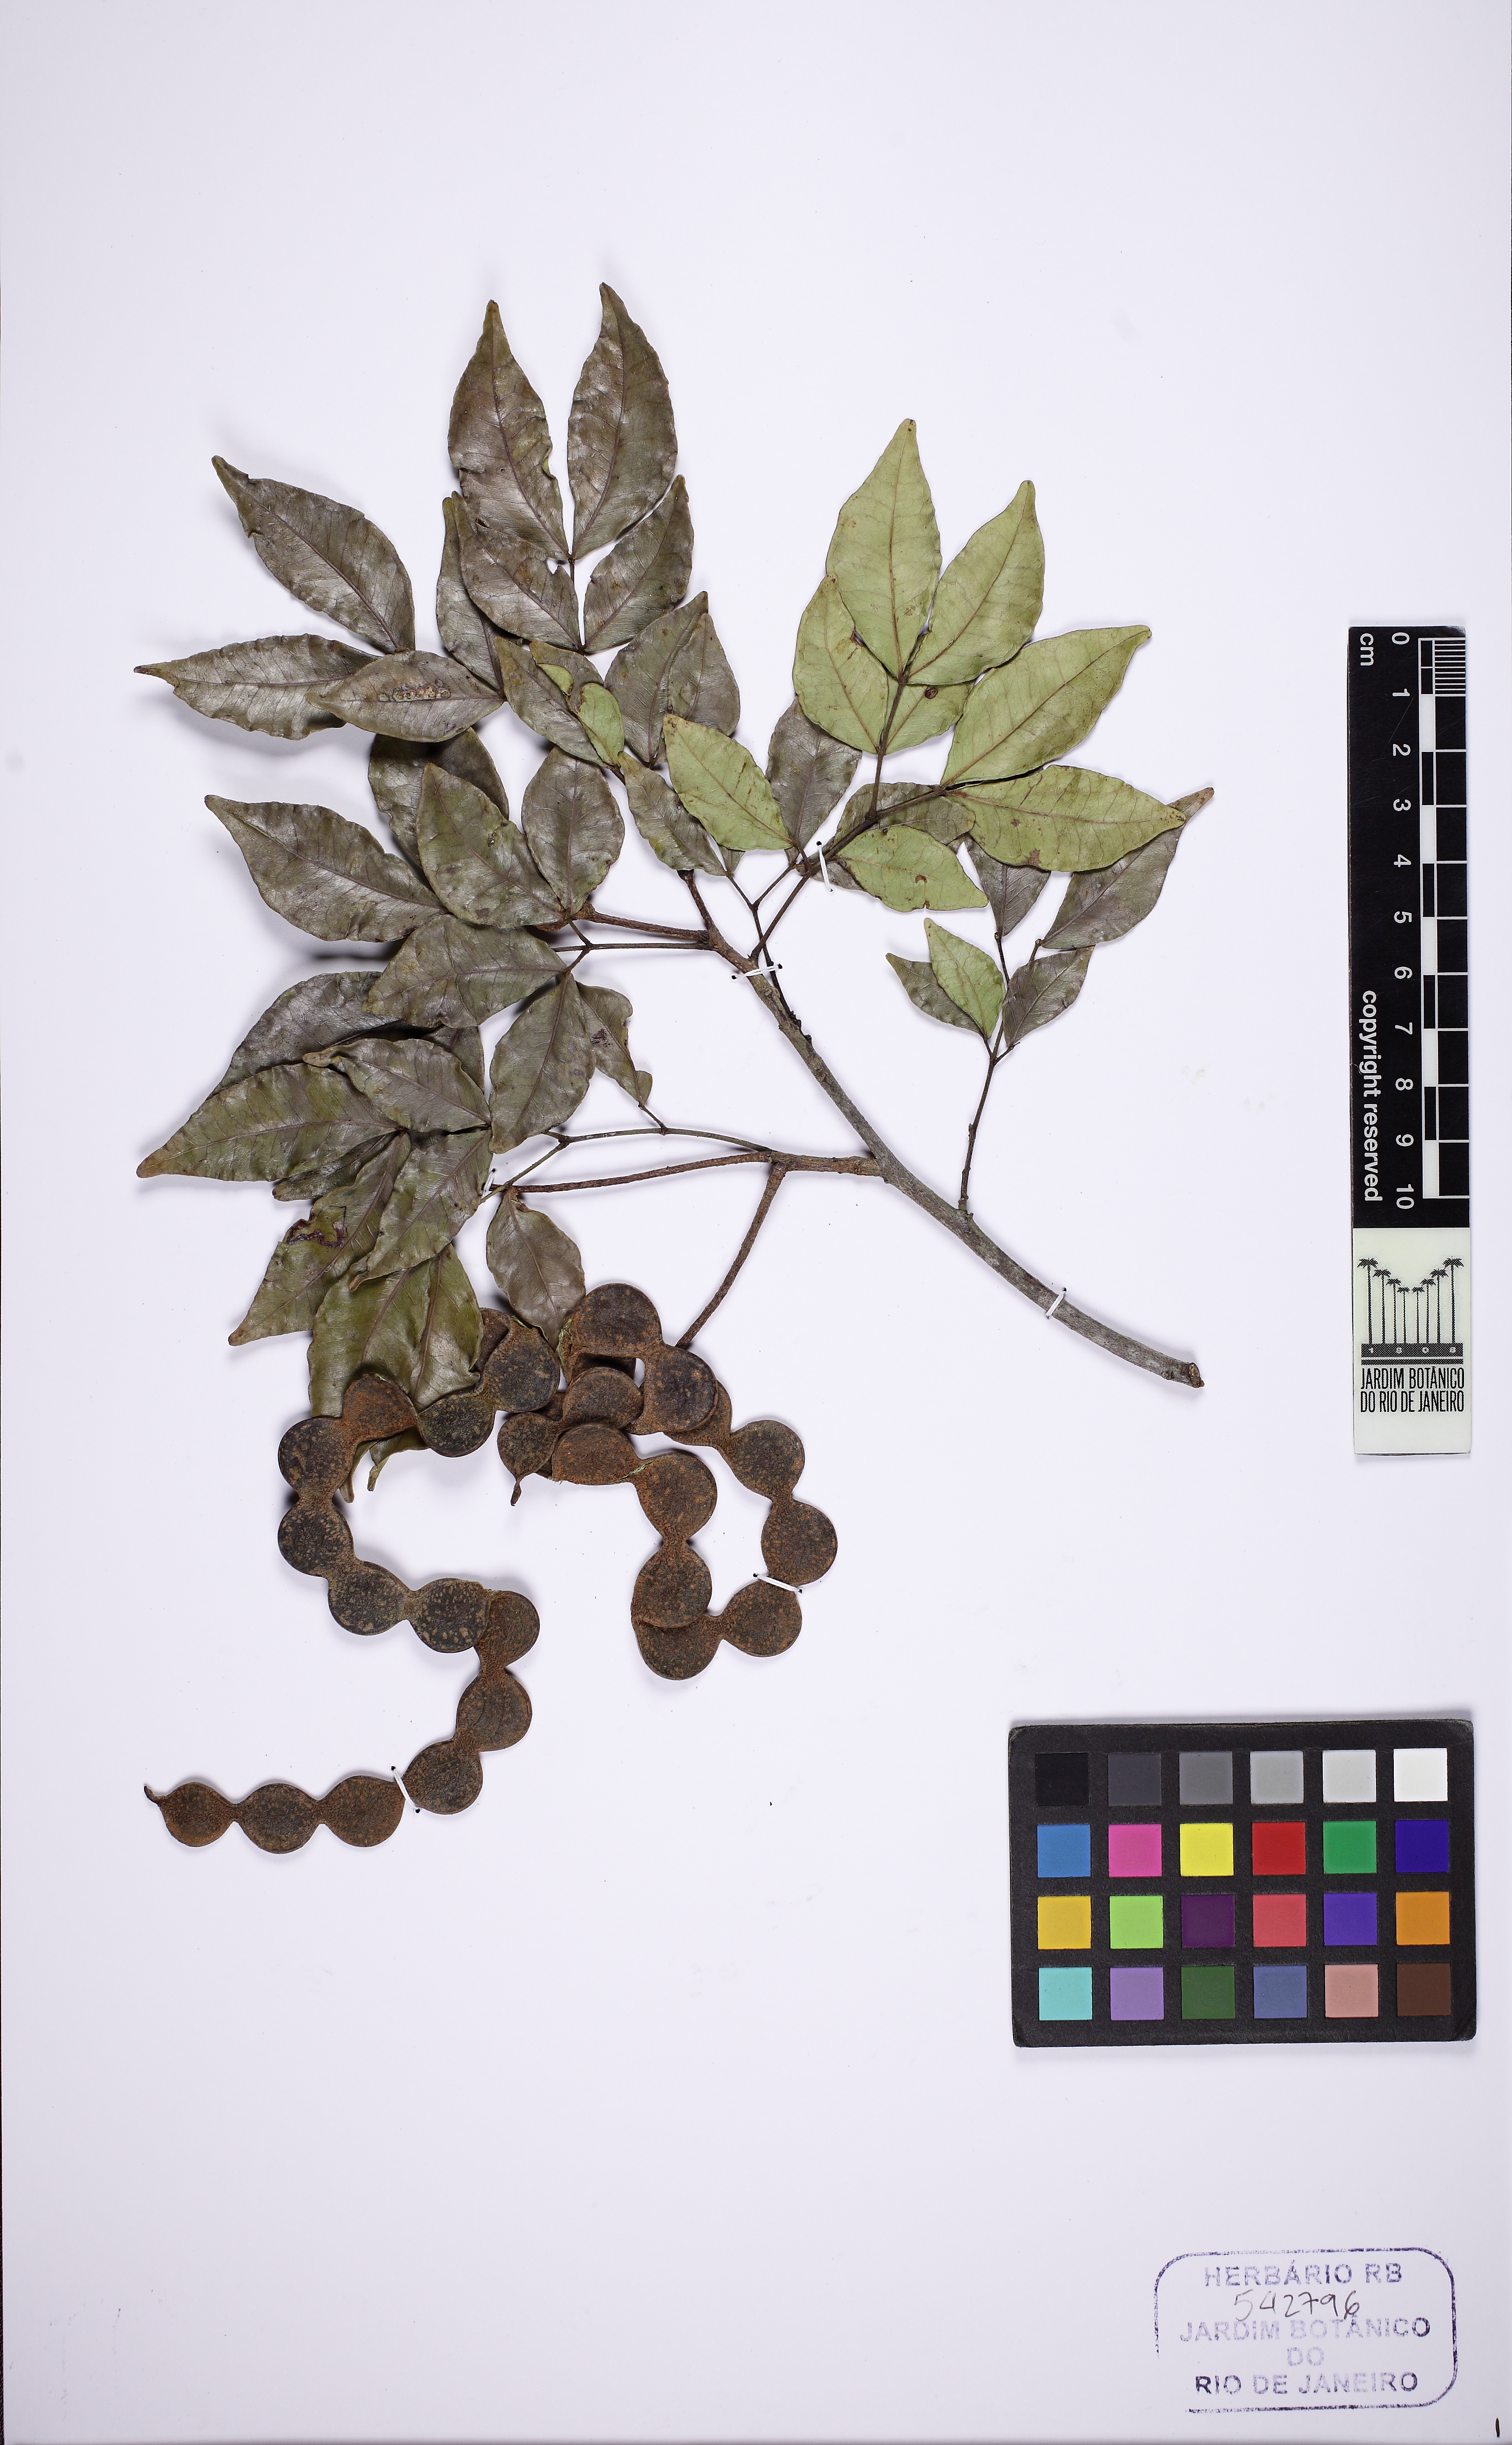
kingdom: Plantae
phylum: Tracheophyta
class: Magnoliopsida
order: Fabales
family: Fabaceae
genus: Pseudopiptadenia
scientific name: Pseudopiptadenia inaequalis
